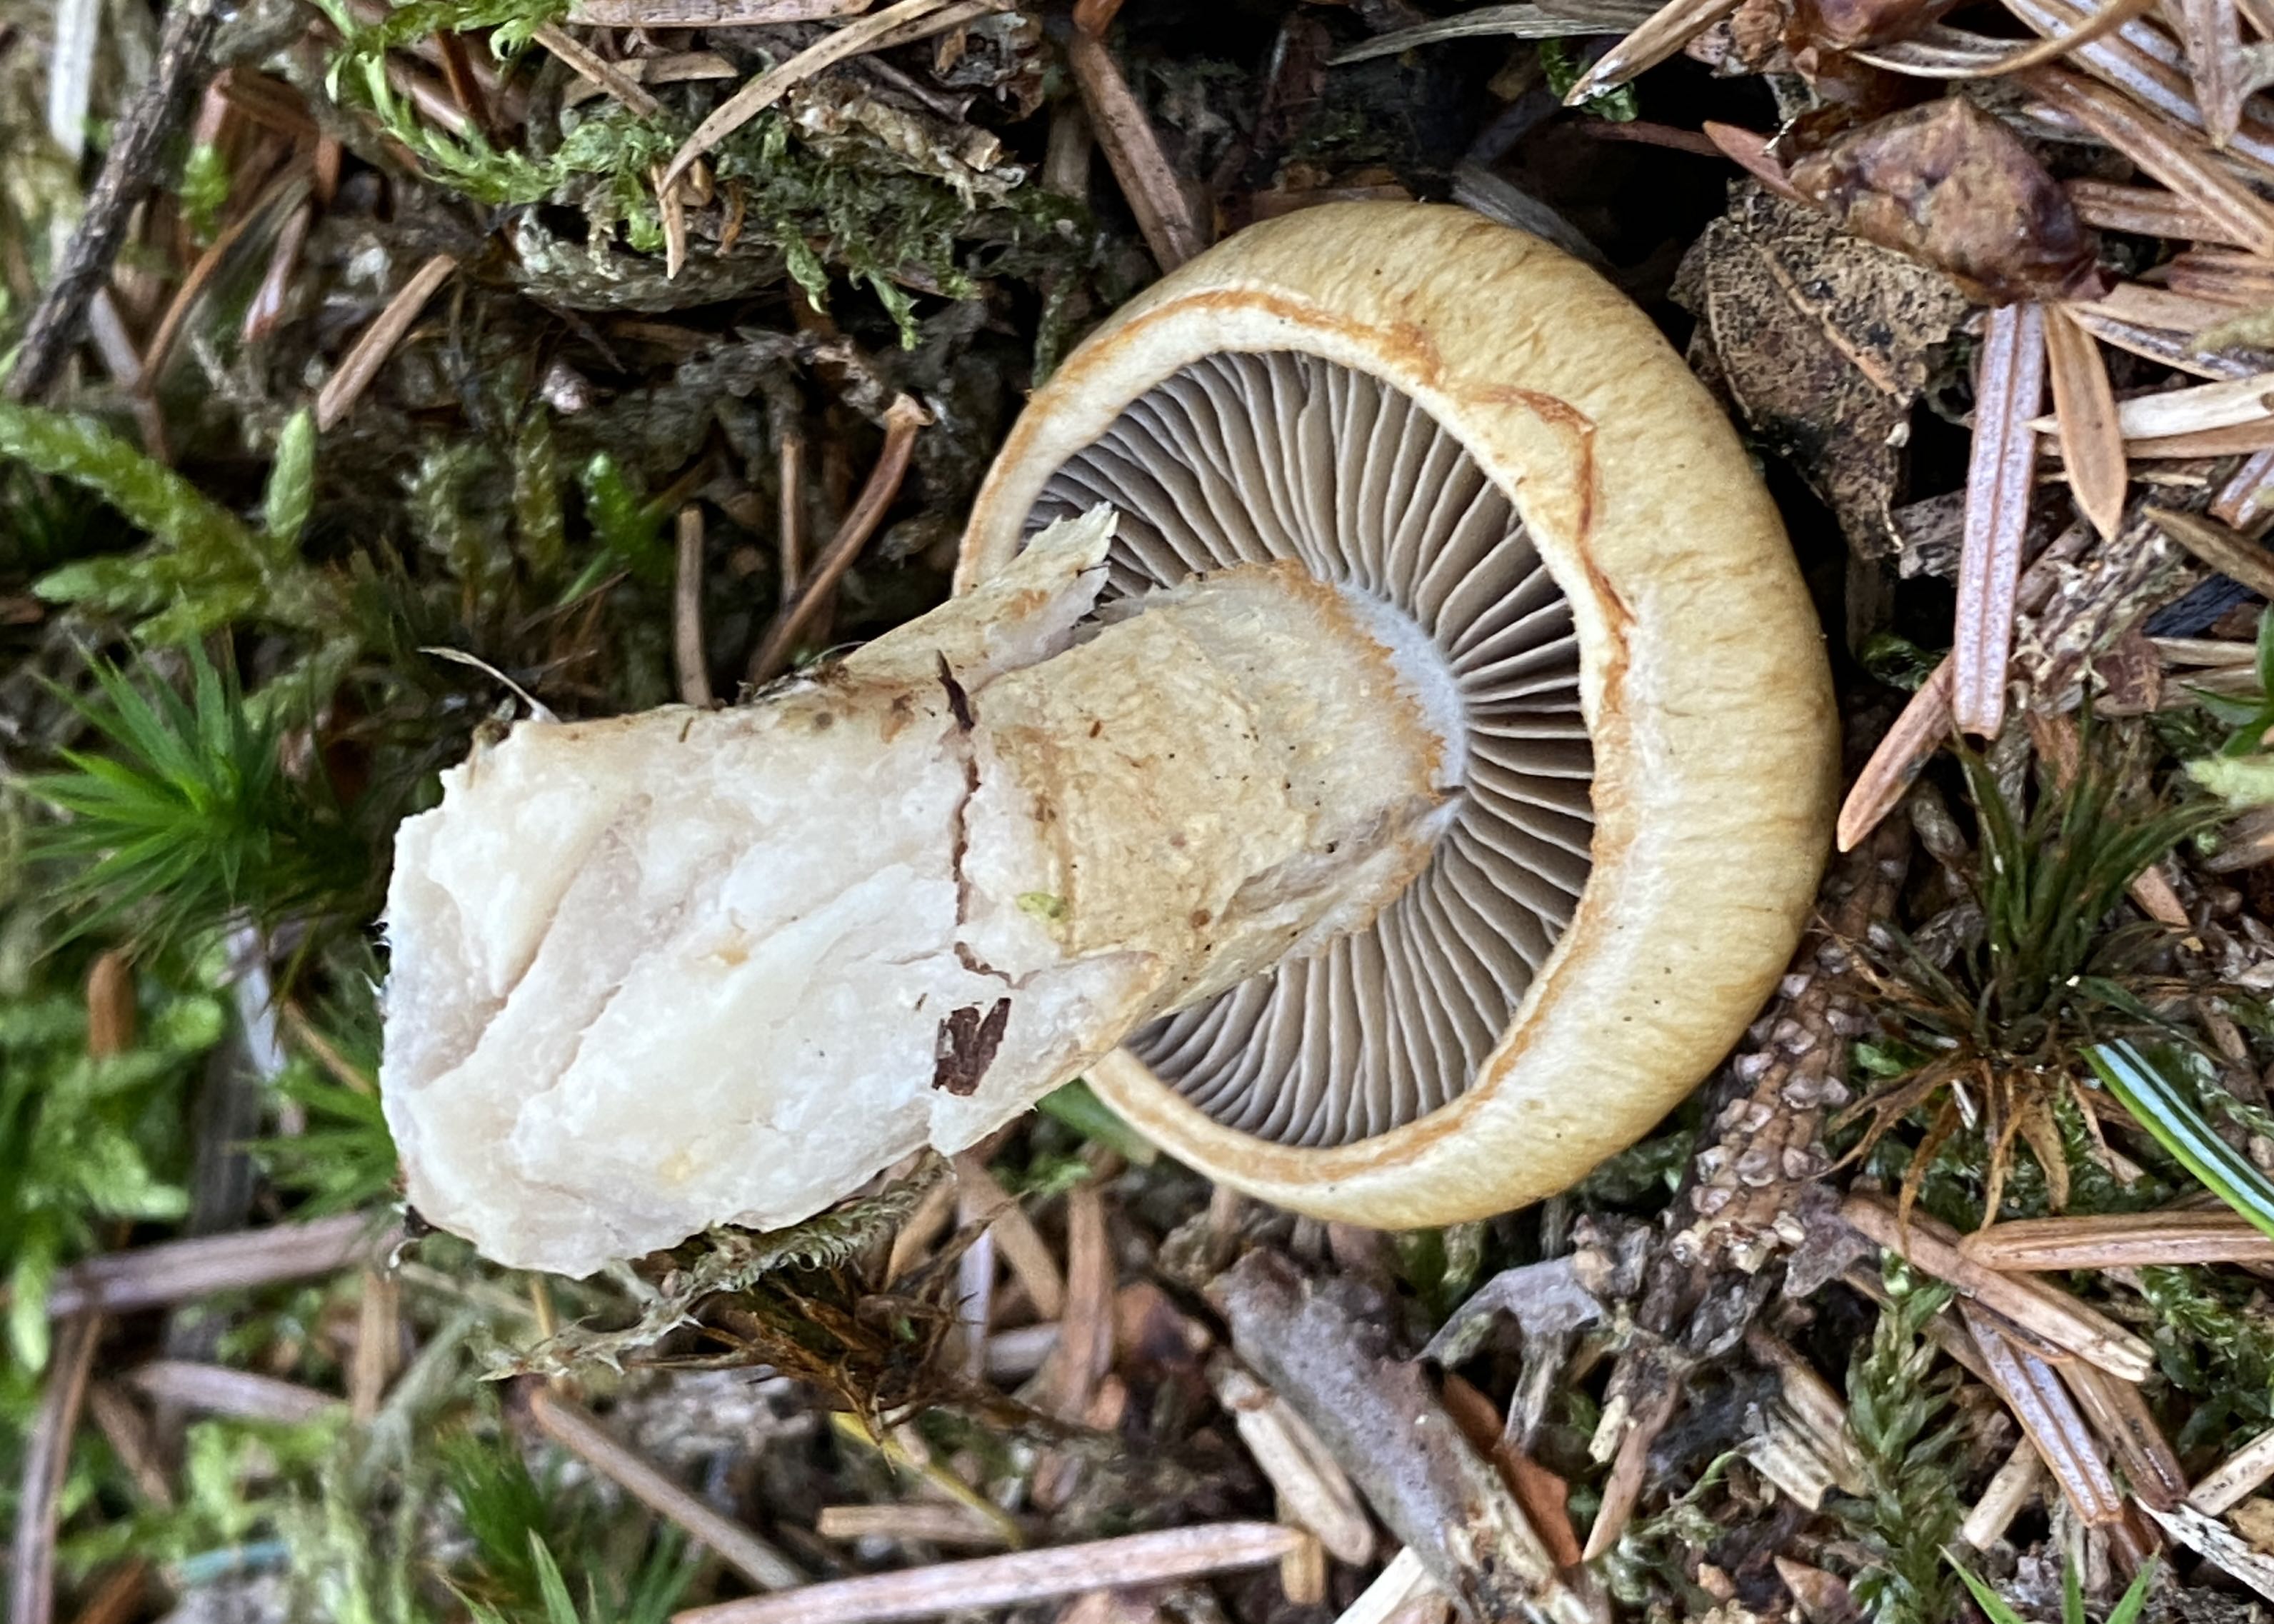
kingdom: Fungi
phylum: Basidiomycota
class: Agaricomycetes
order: Agaricales
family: Cortinariaceae
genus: Cortinarius
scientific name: Cortinarius
